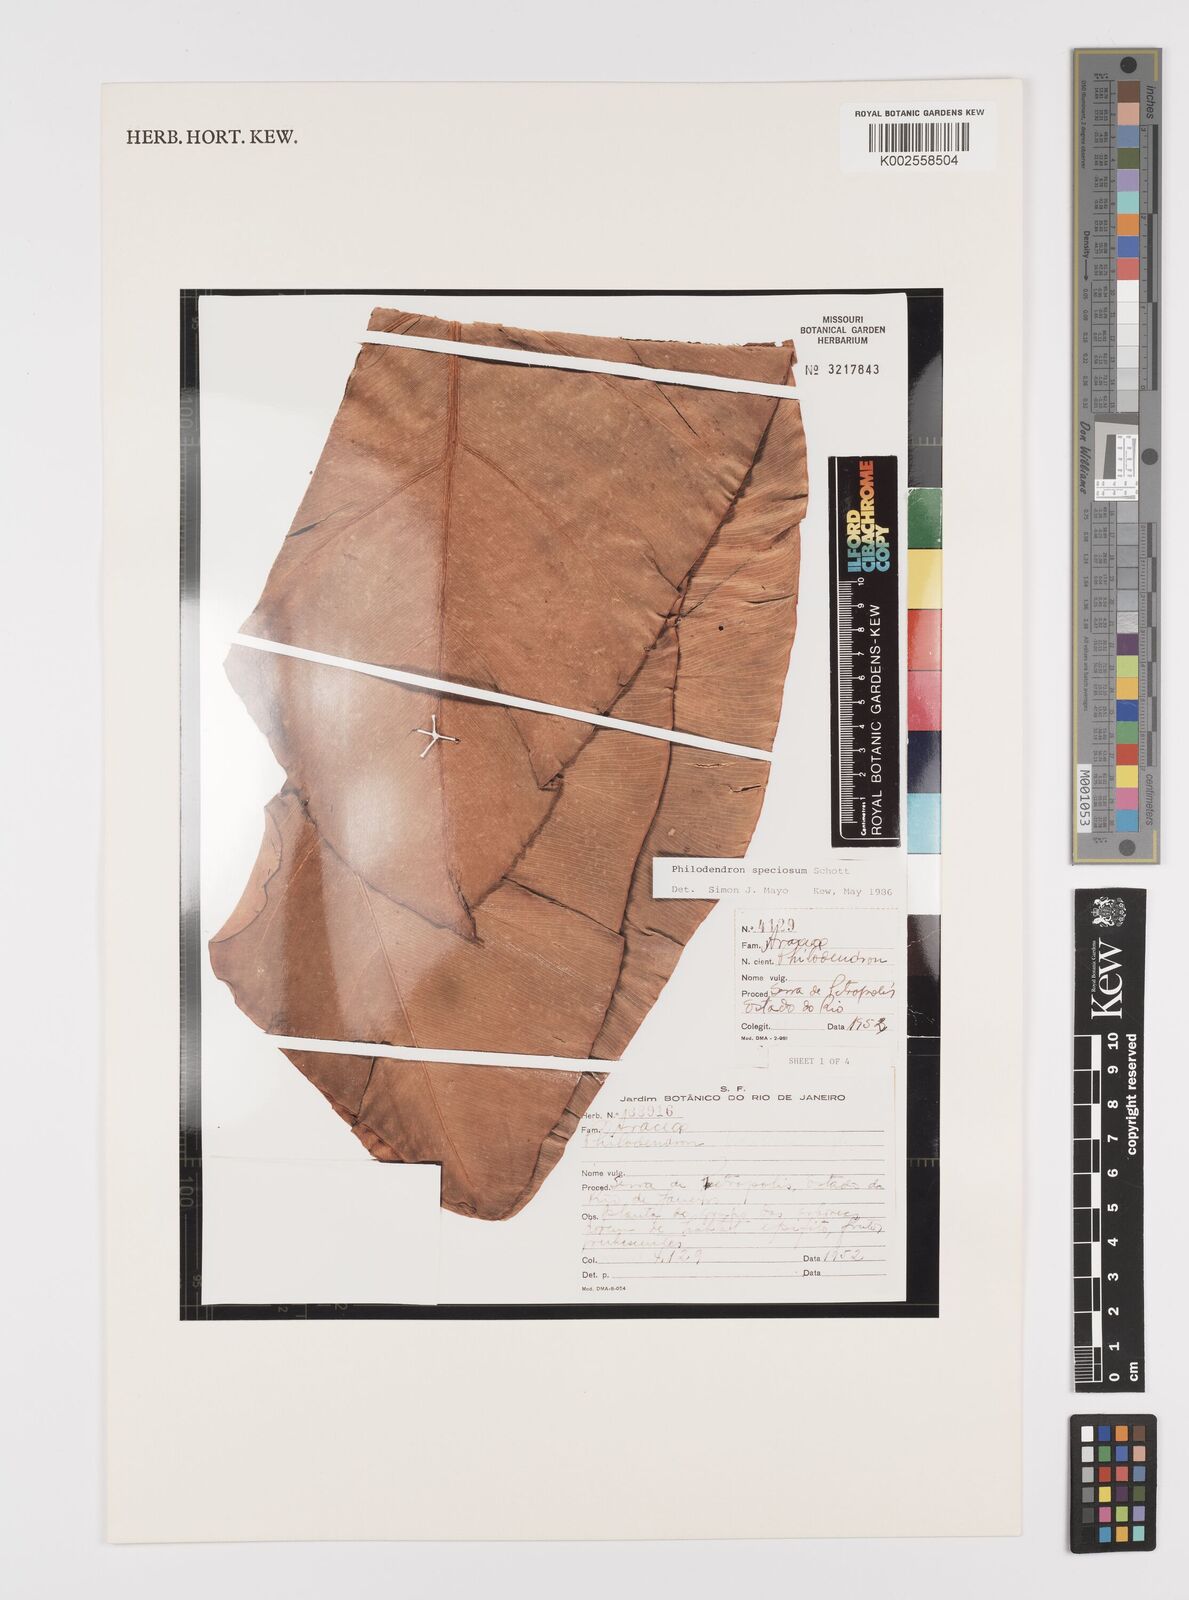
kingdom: Plantae
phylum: Tracheophyta
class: Liliopsida
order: Alismatales
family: Araceae
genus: Thaumatophyllum
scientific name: Thaumatophyllum speciosum
